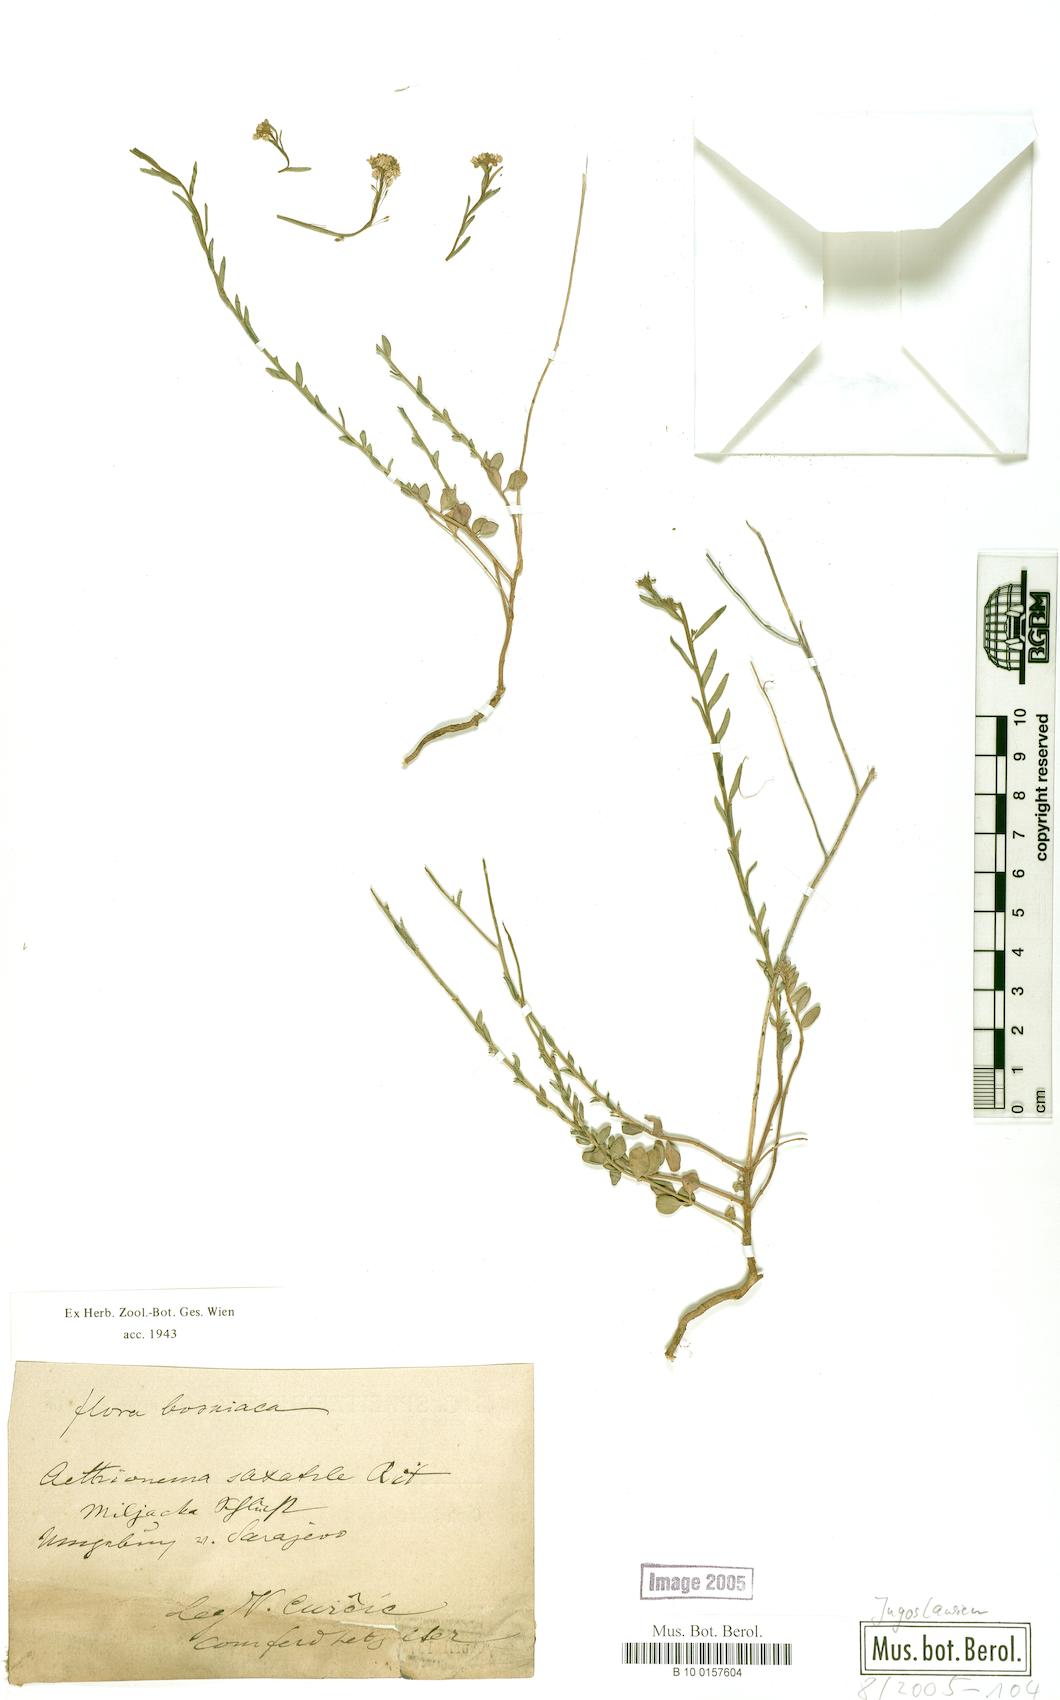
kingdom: Plantae
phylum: Tracheophyta
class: Magnoliopsida
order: Brassicales
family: Brassicaceae
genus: Aethionema
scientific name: Aethionema saxatile
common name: Burnt candytuft
